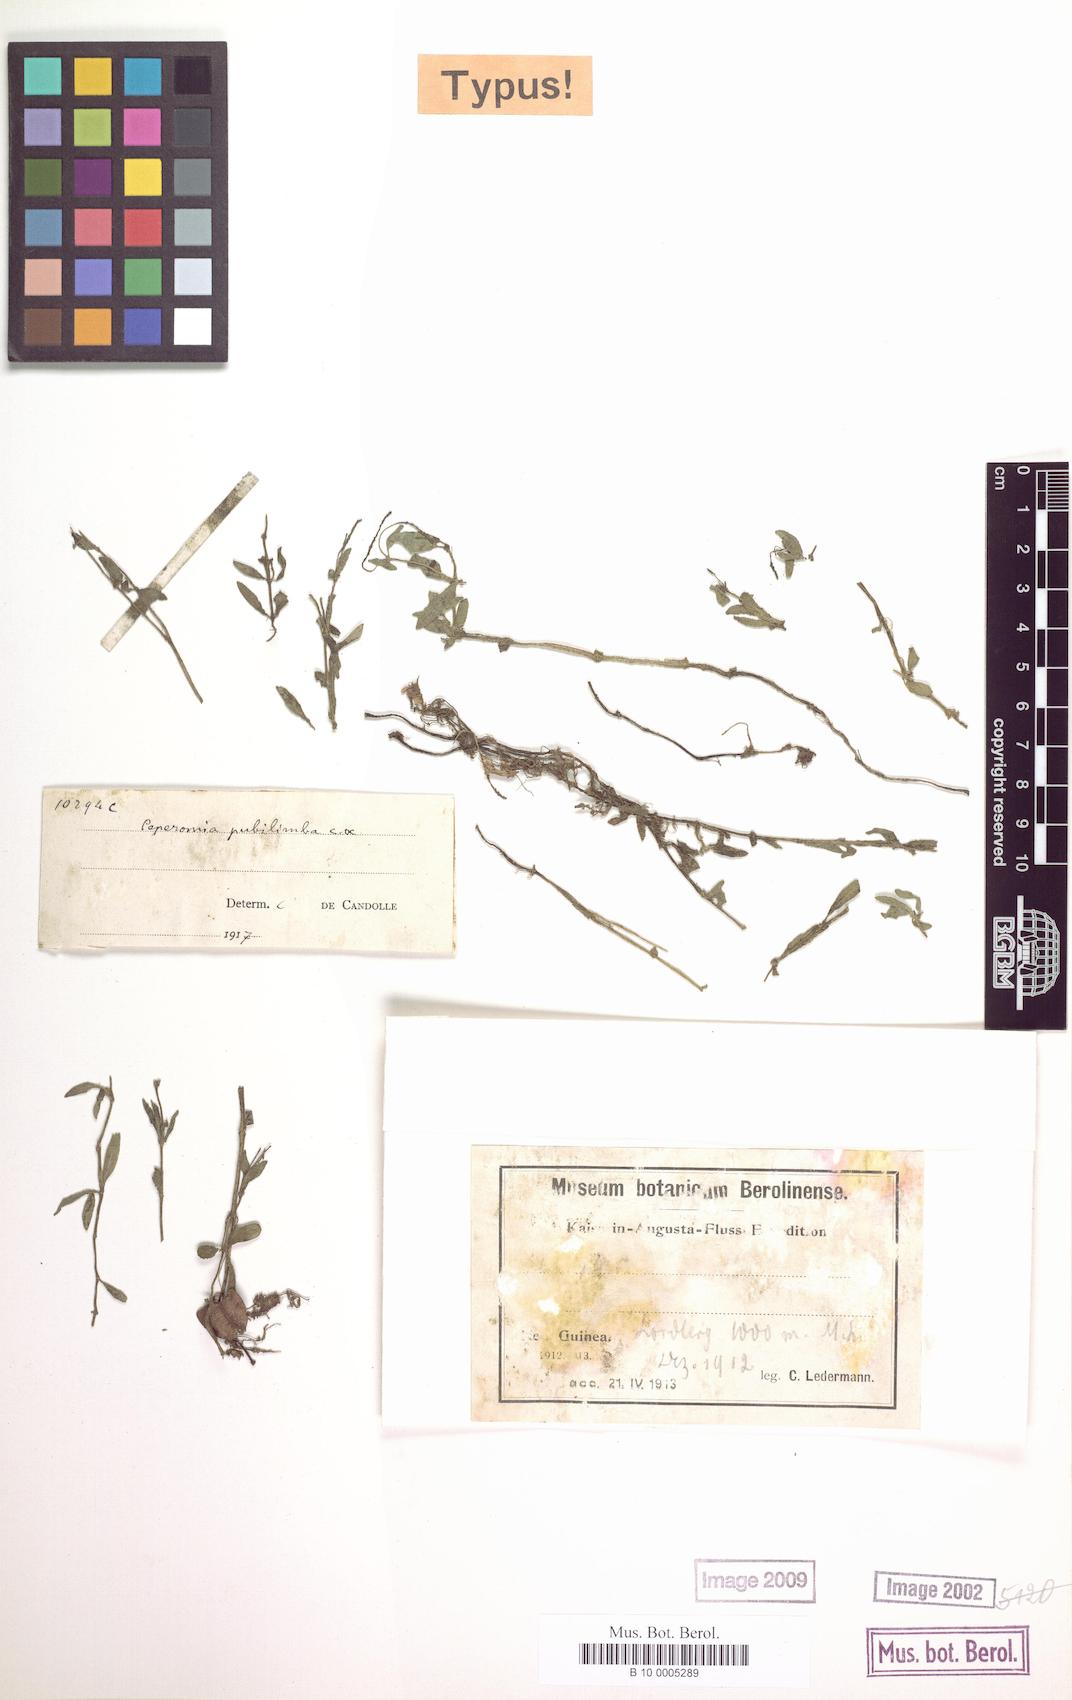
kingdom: Plantae
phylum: Tracheophyta
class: Magnoliopsida
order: Piperales
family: Piperaceae
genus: Peperomia
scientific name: Peperomia tenuipila
